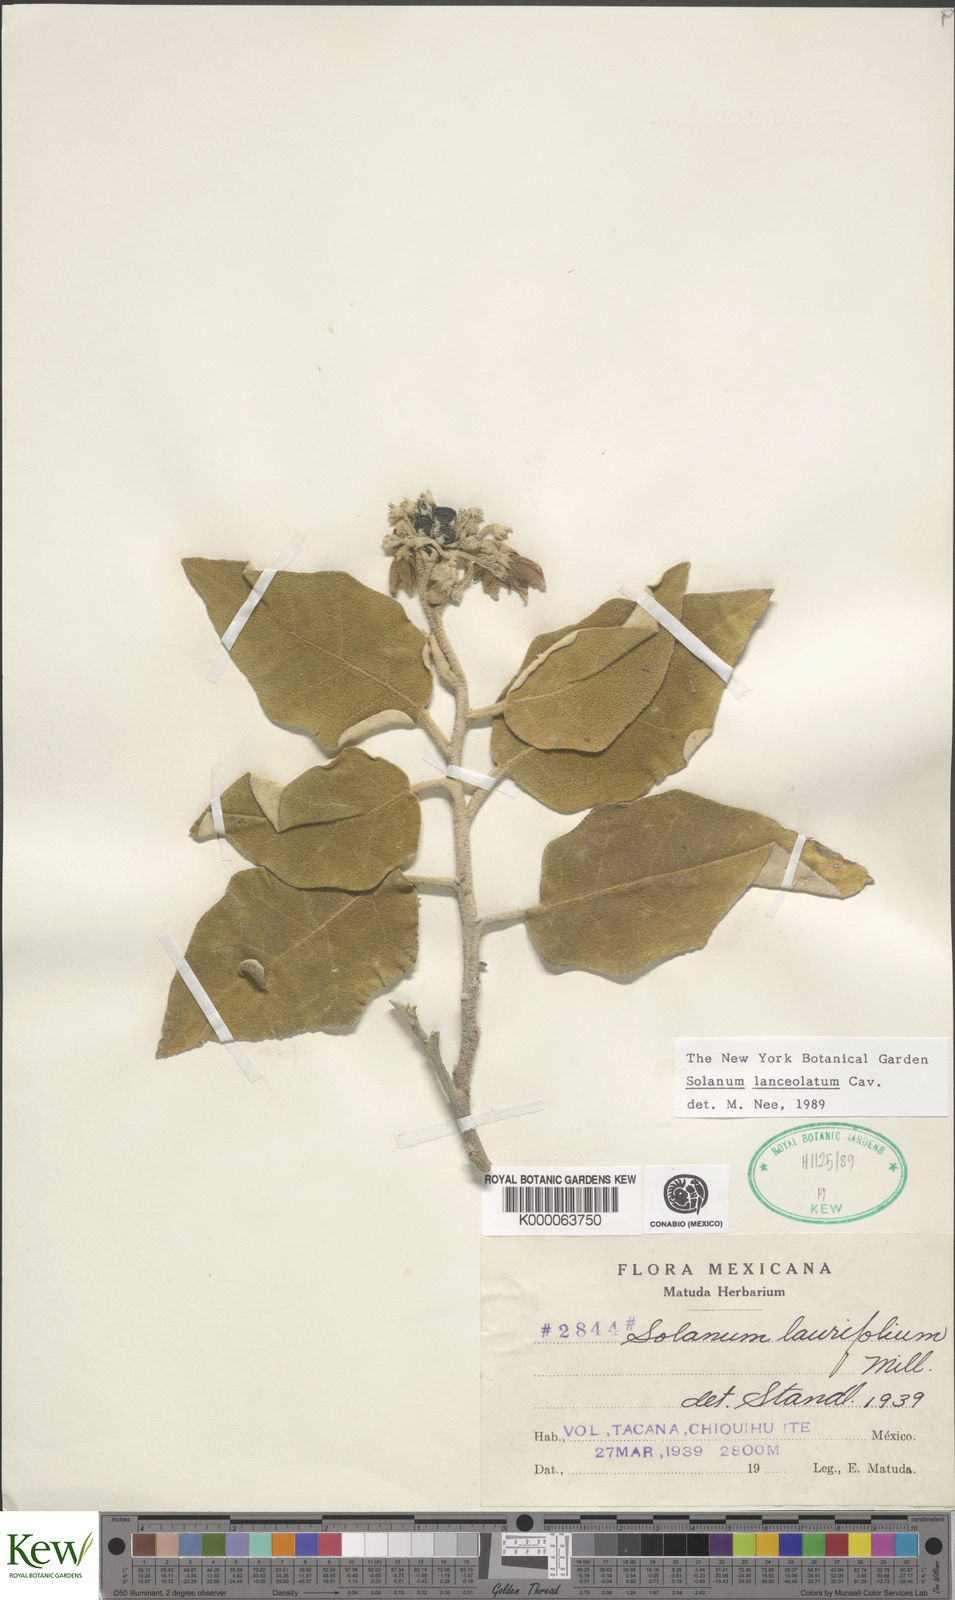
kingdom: Plantae
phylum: Tracheophyta
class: Magnoliopsida
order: Solanales
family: Solanaceae
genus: Solanum
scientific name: Solanum lanceolatum
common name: Orangeberry nightshade
